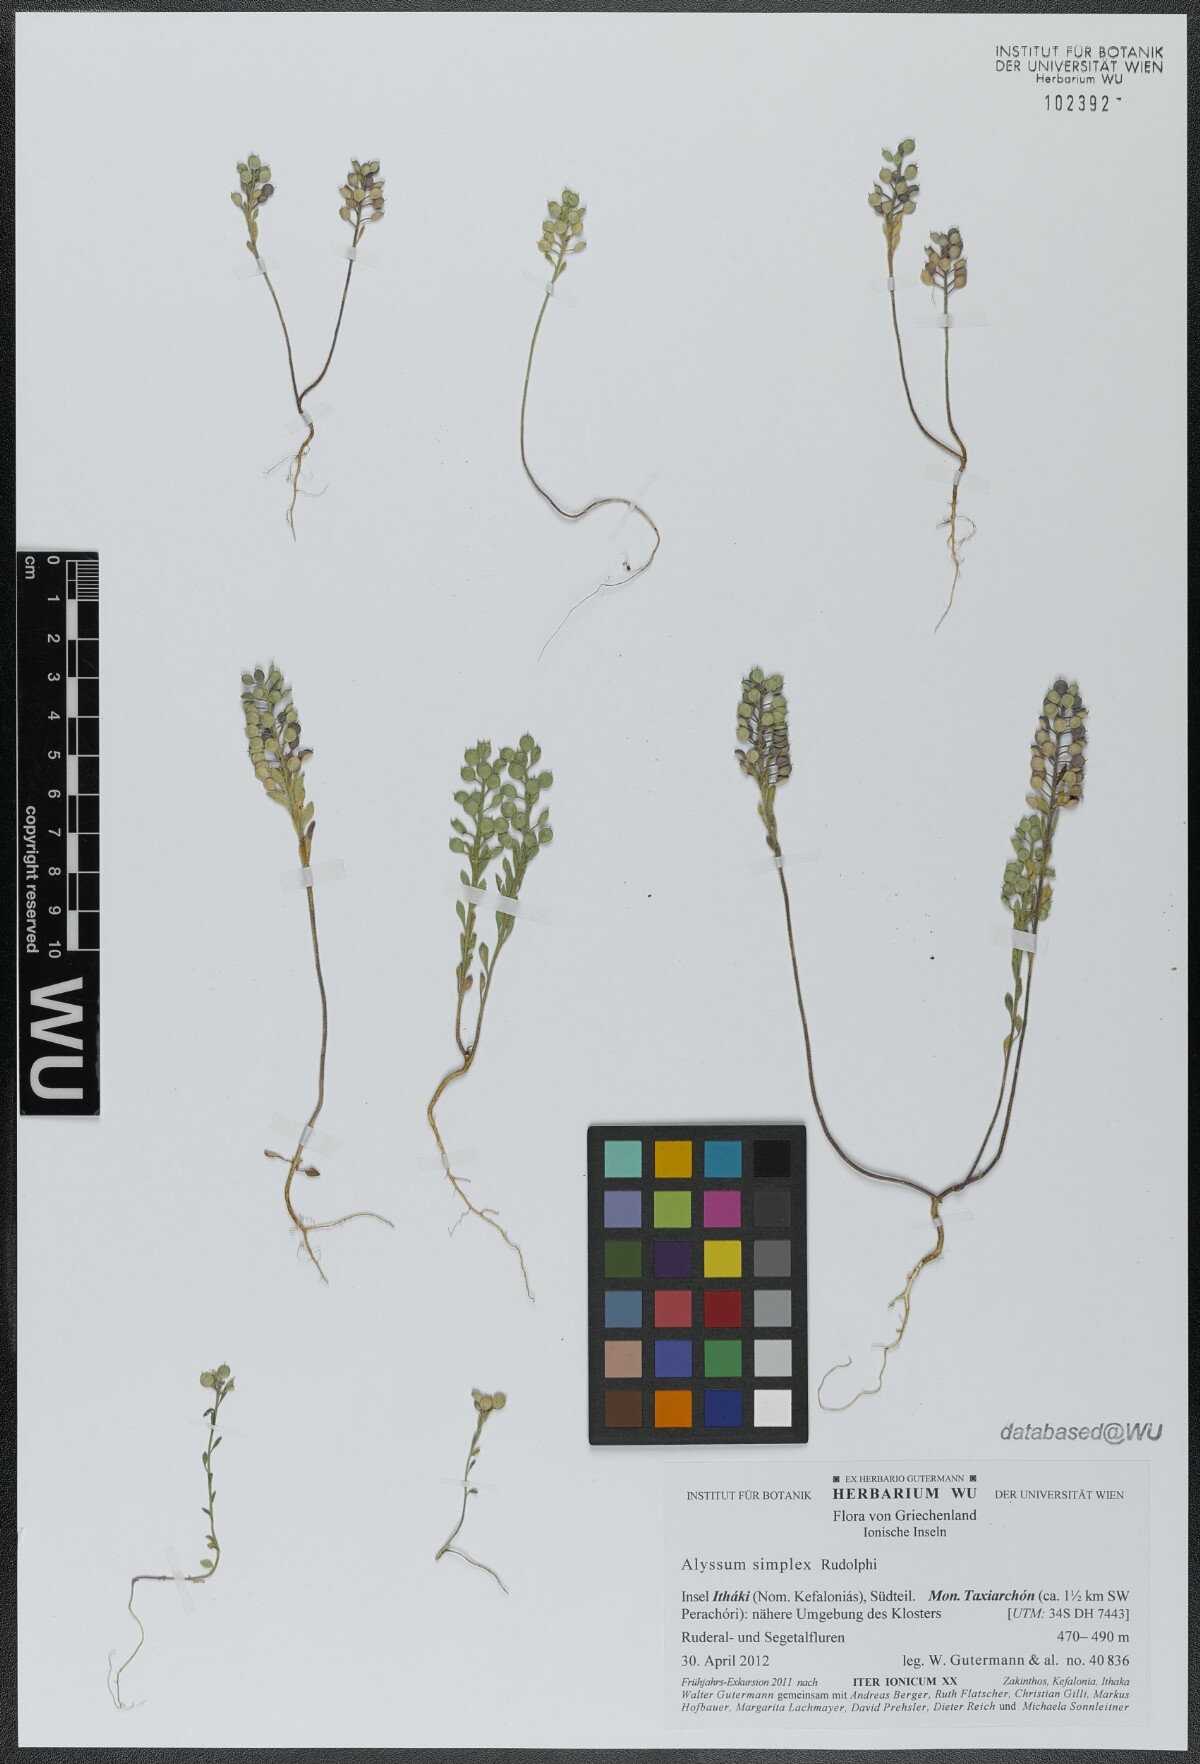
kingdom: Plantae
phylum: Tracheophyta
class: Magnoliopsida
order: Brassicales
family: Brassicaceae
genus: Alyssum
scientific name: Alyssum simplex
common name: Alyssum
